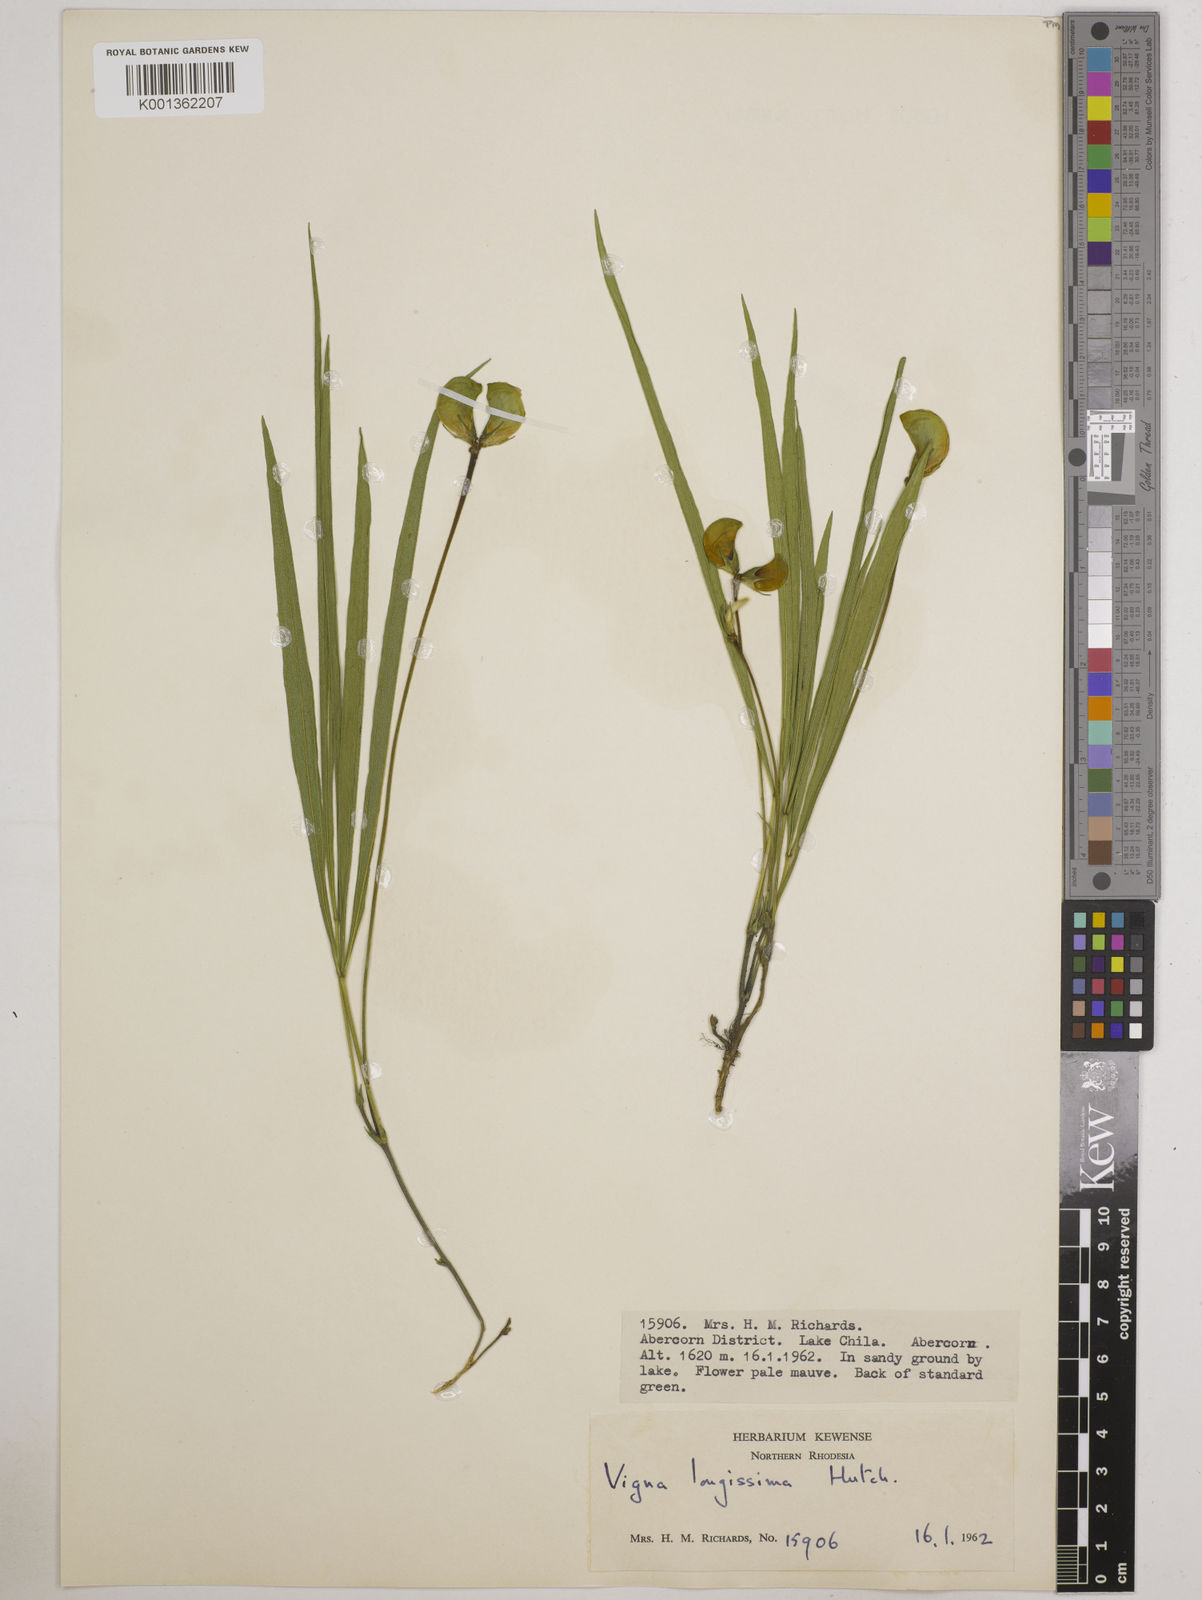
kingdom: Plantae
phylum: Tracheophyta
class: Magnoliopsida
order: Fabales
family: Fabaceae
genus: Vigna
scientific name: Vigna longissima
